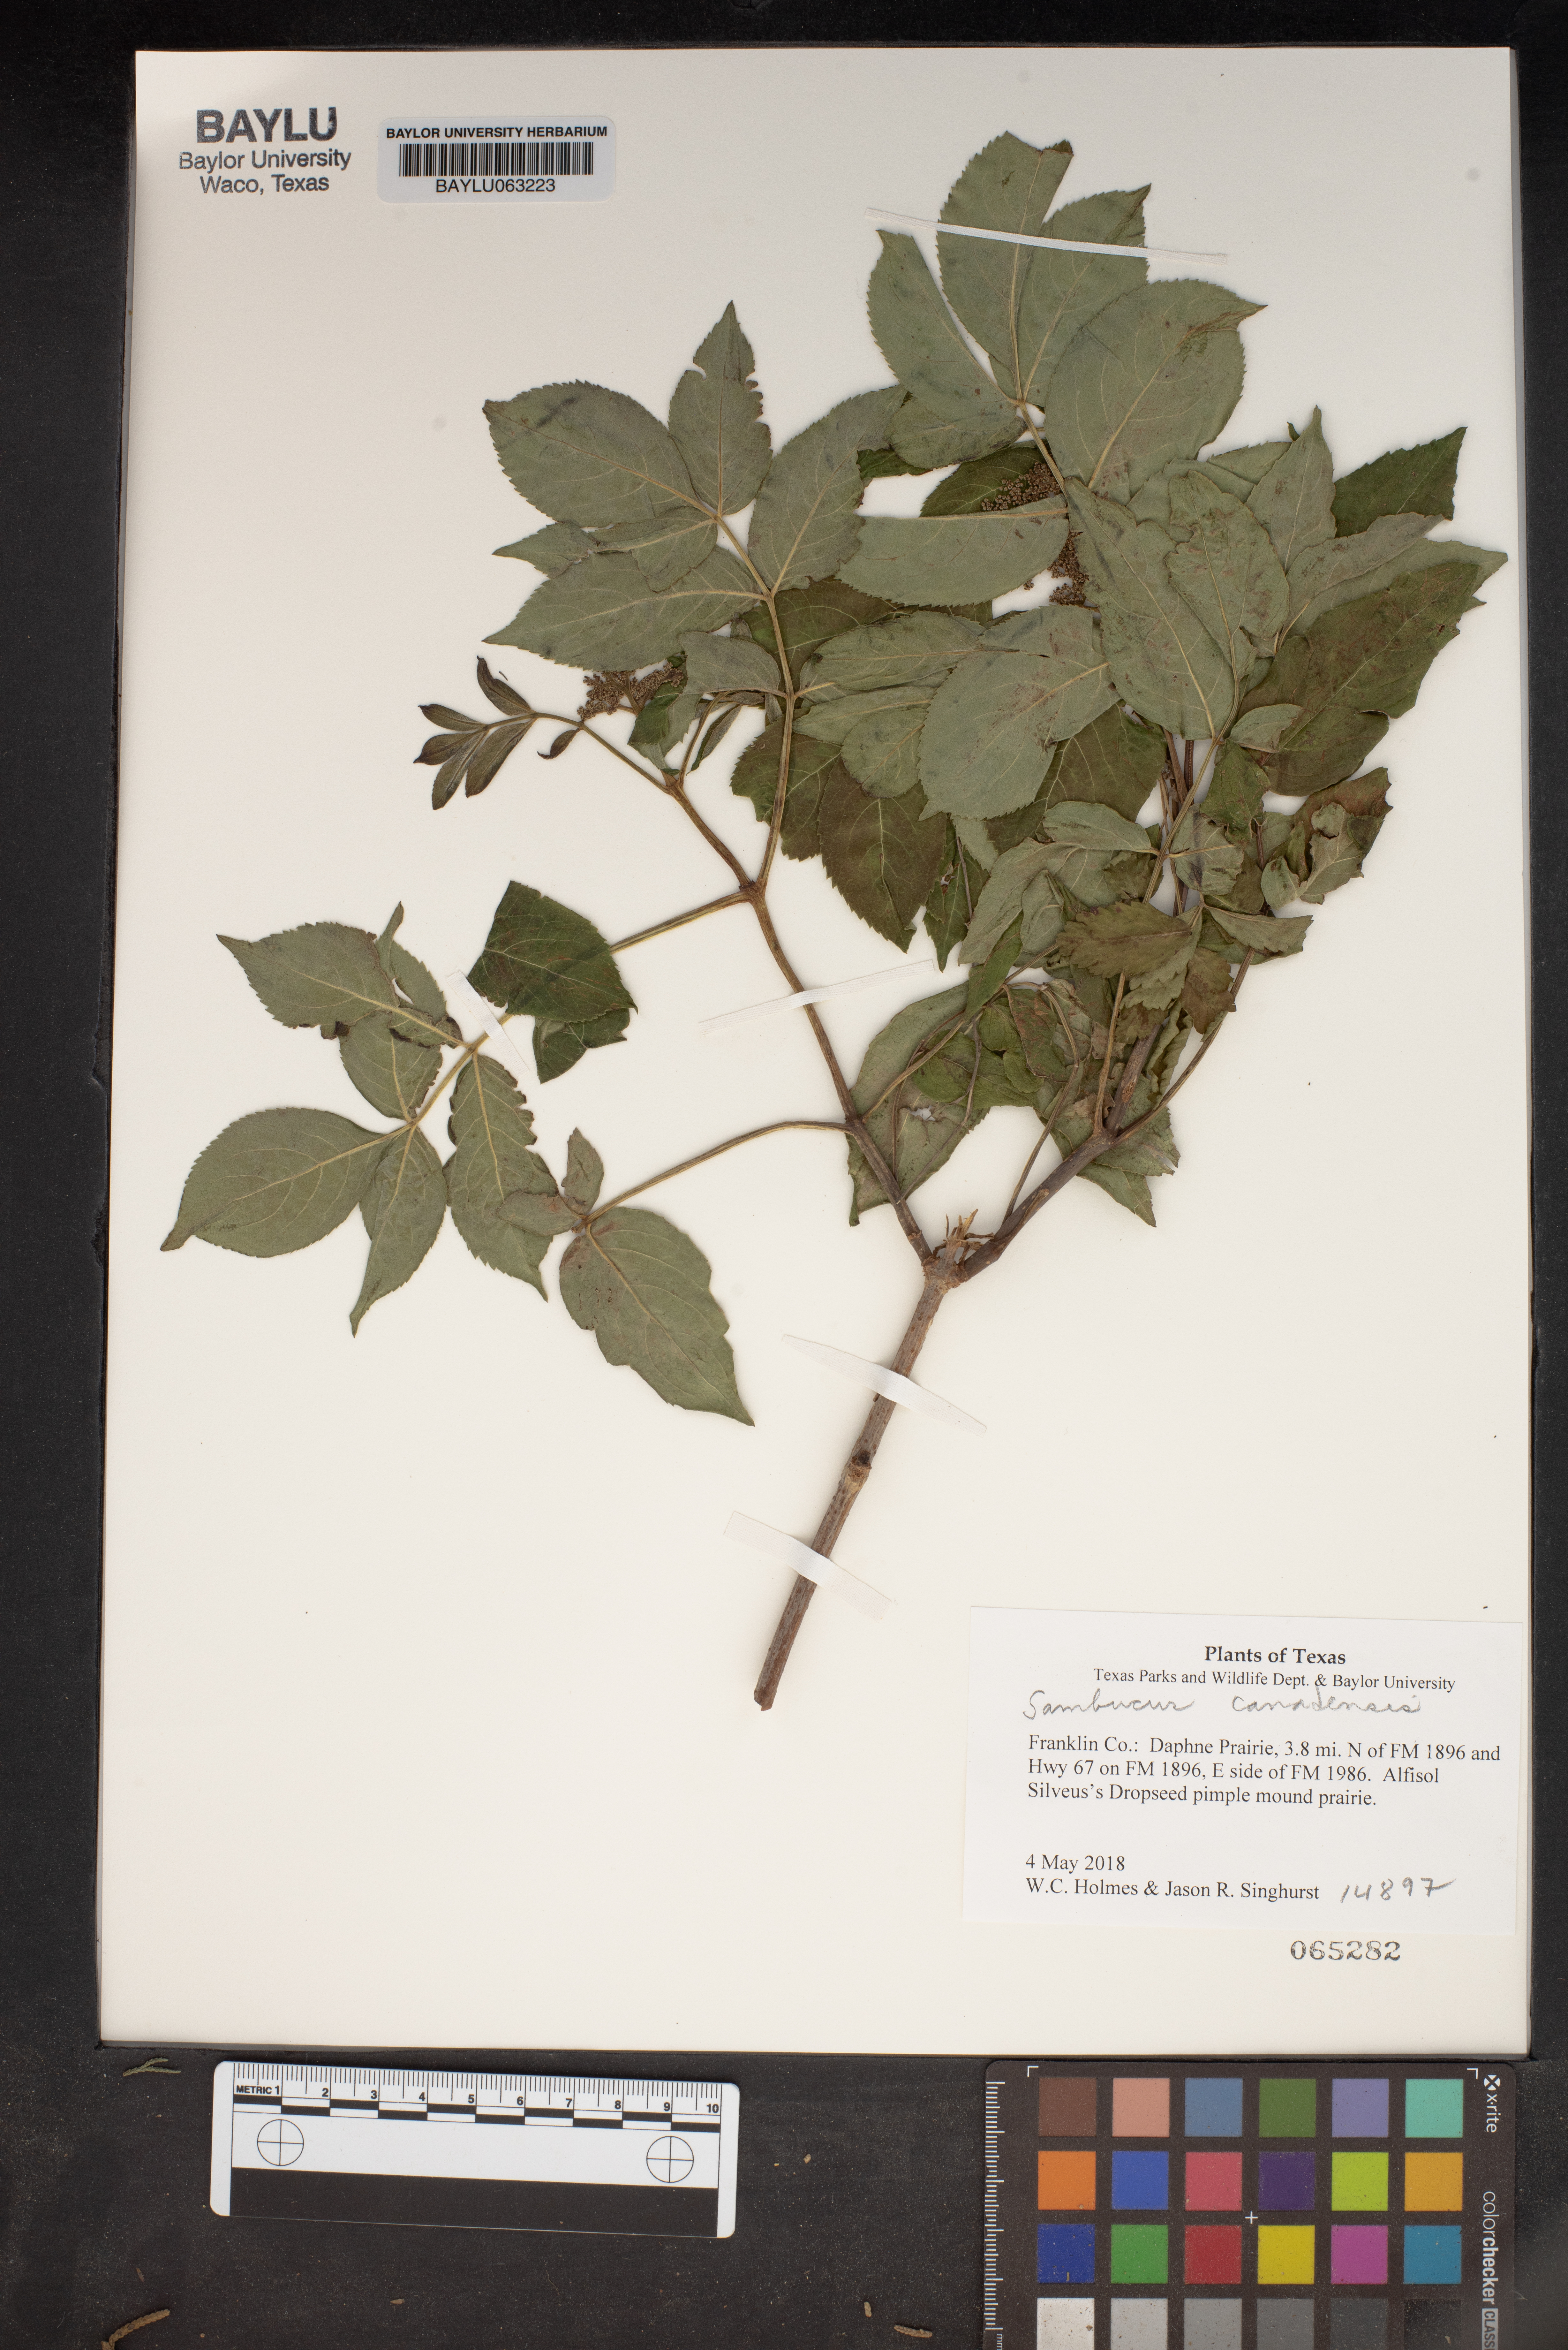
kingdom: Plantae
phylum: Tracheophyta
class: Magnoliopsida
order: Dipsacales
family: Viburnaceae
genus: Sambucus
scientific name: Sambucus canadensis
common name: American elder
